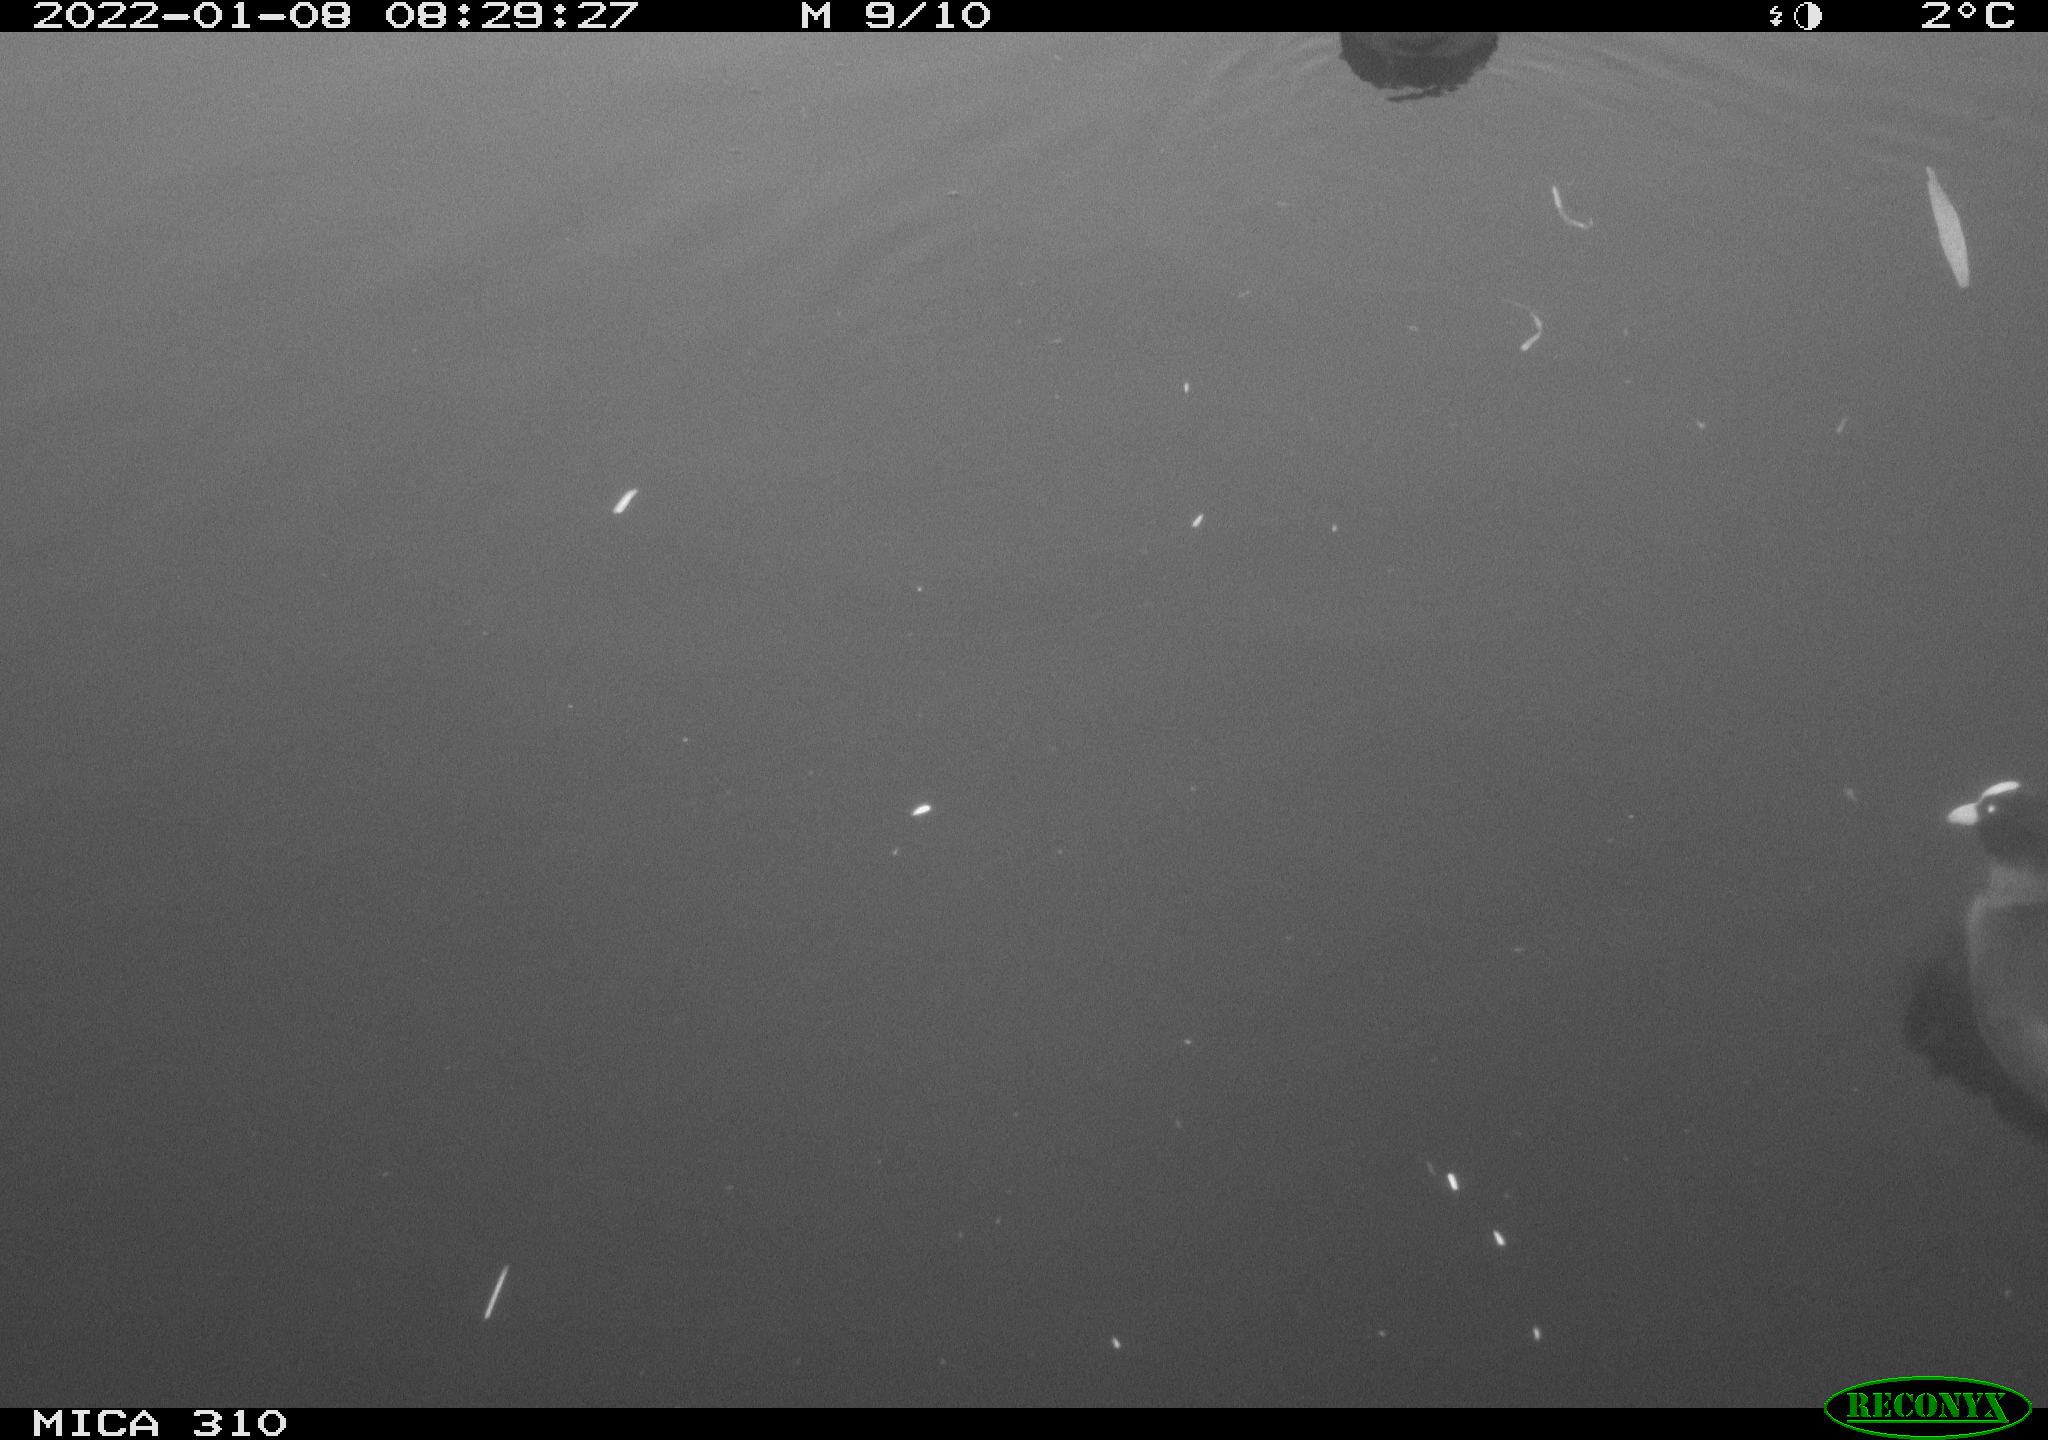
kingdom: Animalia
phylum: Chordata
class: Aves
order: Gruiformes
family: Rallidae
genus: Fulica
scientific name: Fulica atra
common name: Eurasian coot
